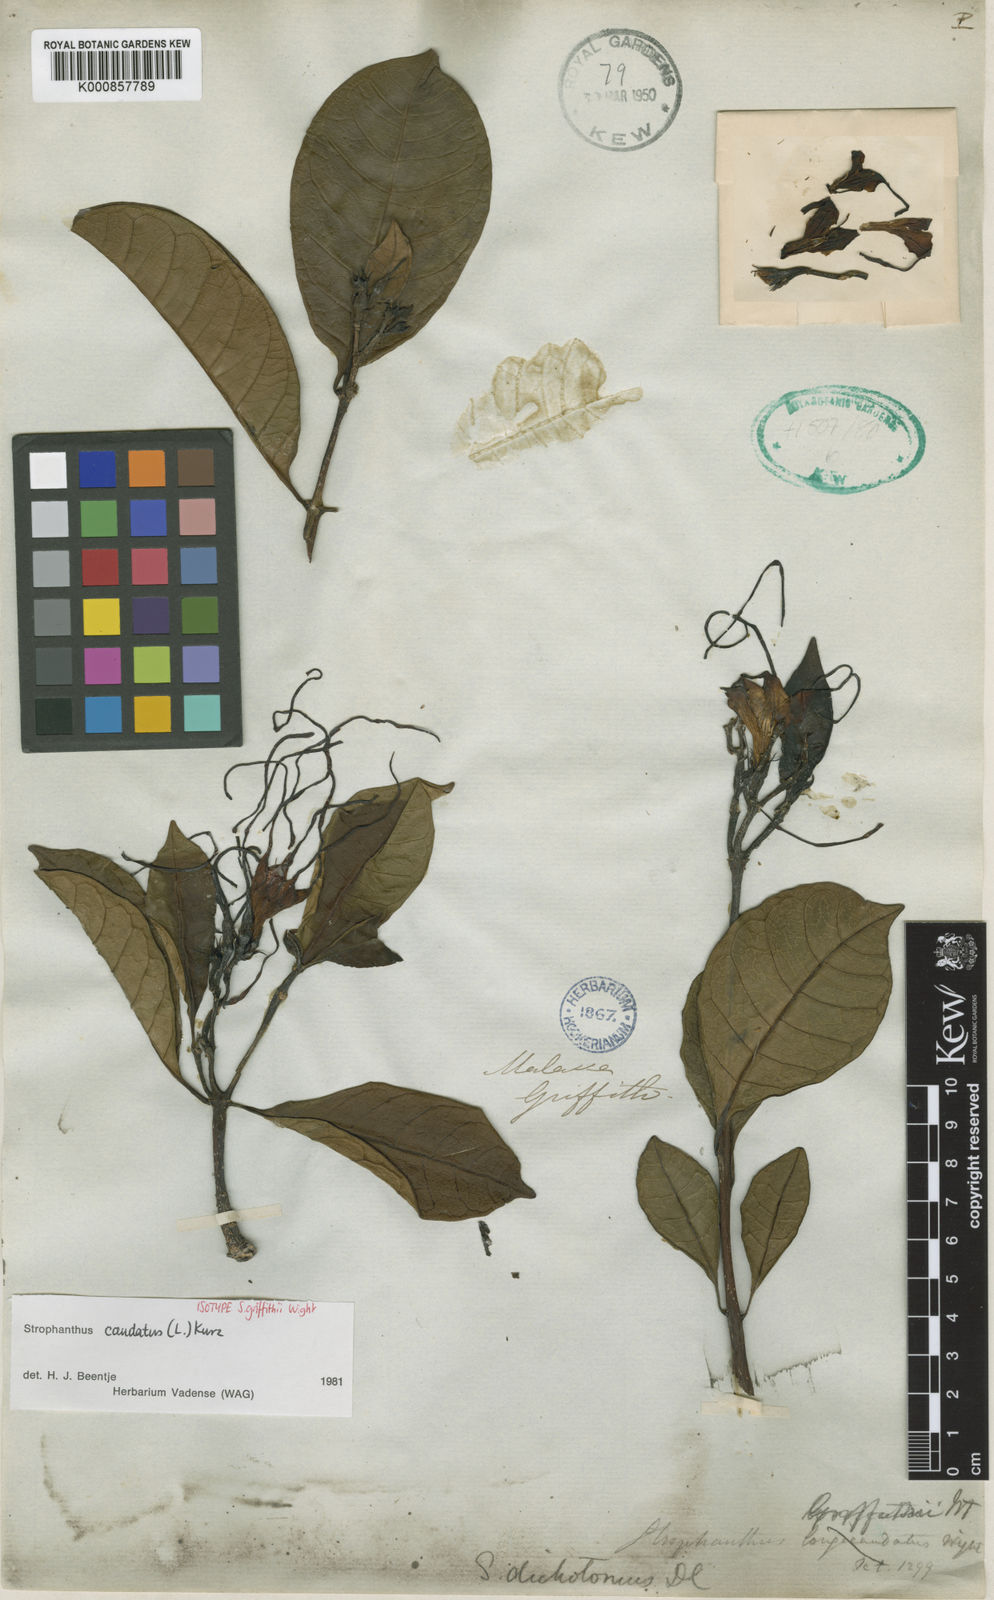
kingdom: Plantae
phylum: Tracheophyta
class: Magnoliopsida
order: Gentianales
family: Apocynaceae
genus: Strophanthus
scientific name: Strophanthus caudatus
